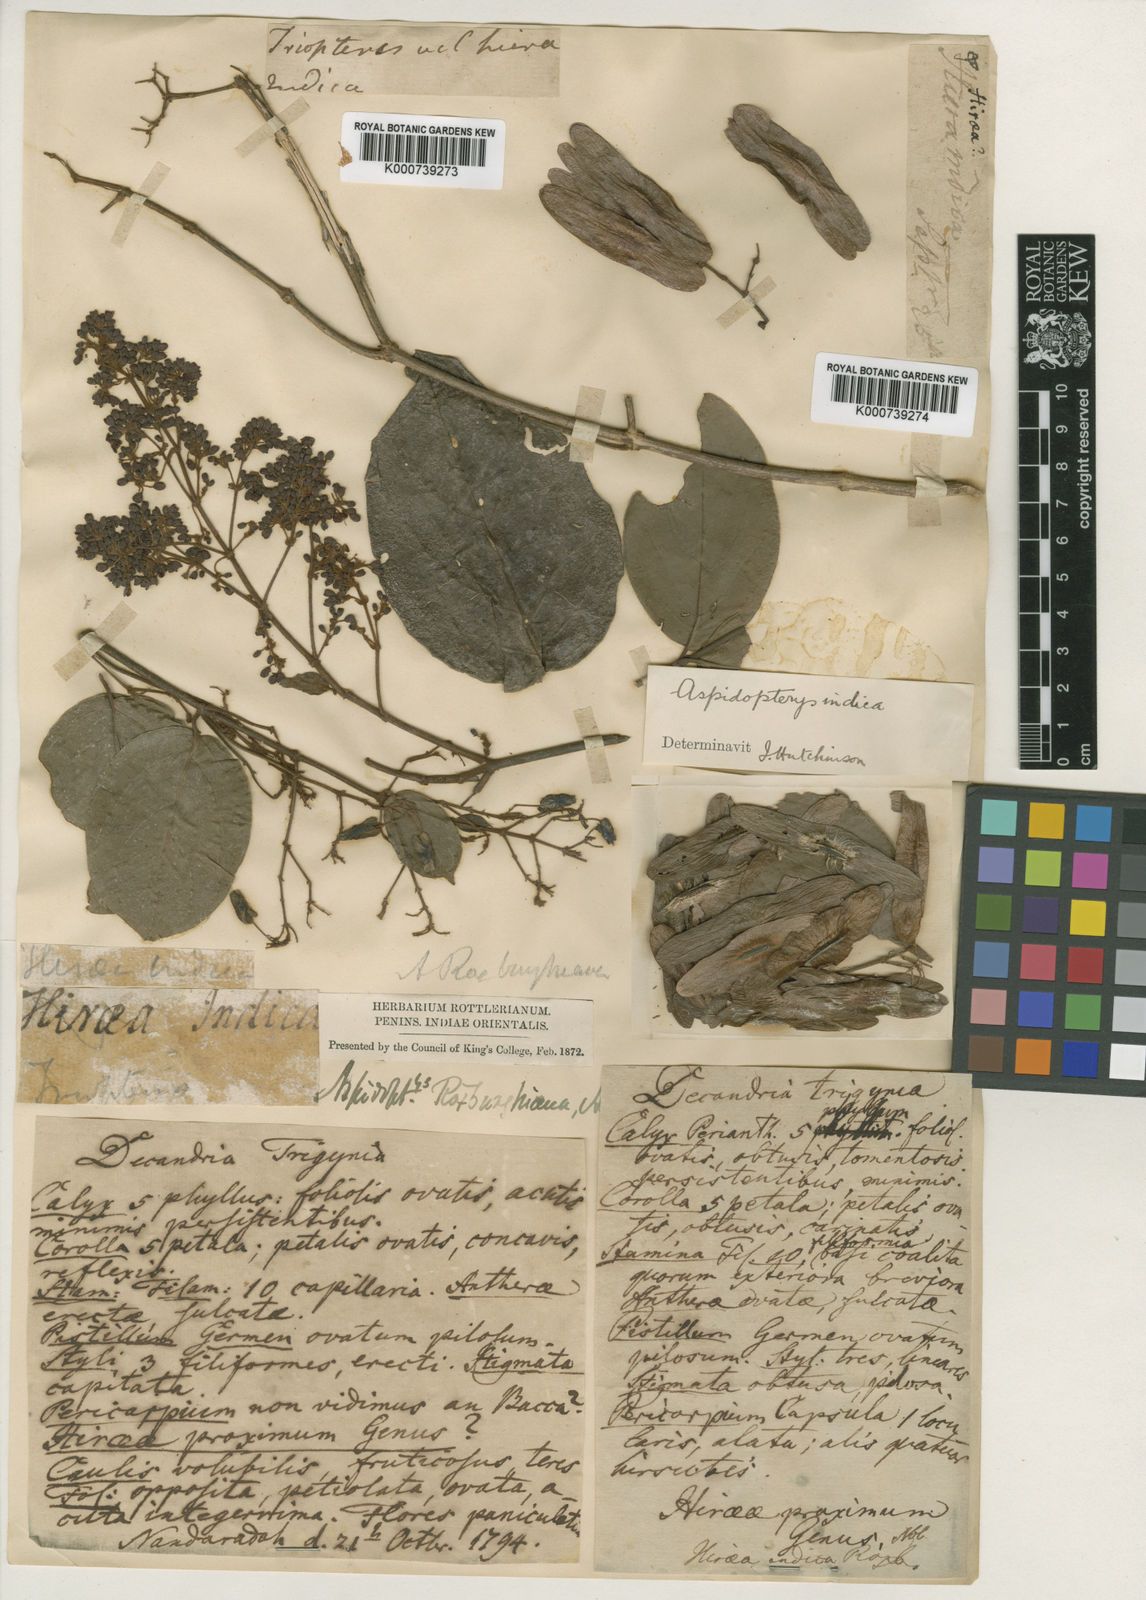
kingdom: Plantae
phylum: Tracheophyta
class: Magnoliopsida
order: Malpighiales
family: Malpighiaceae
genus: Aspidopterys
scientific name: Aspidopterys
